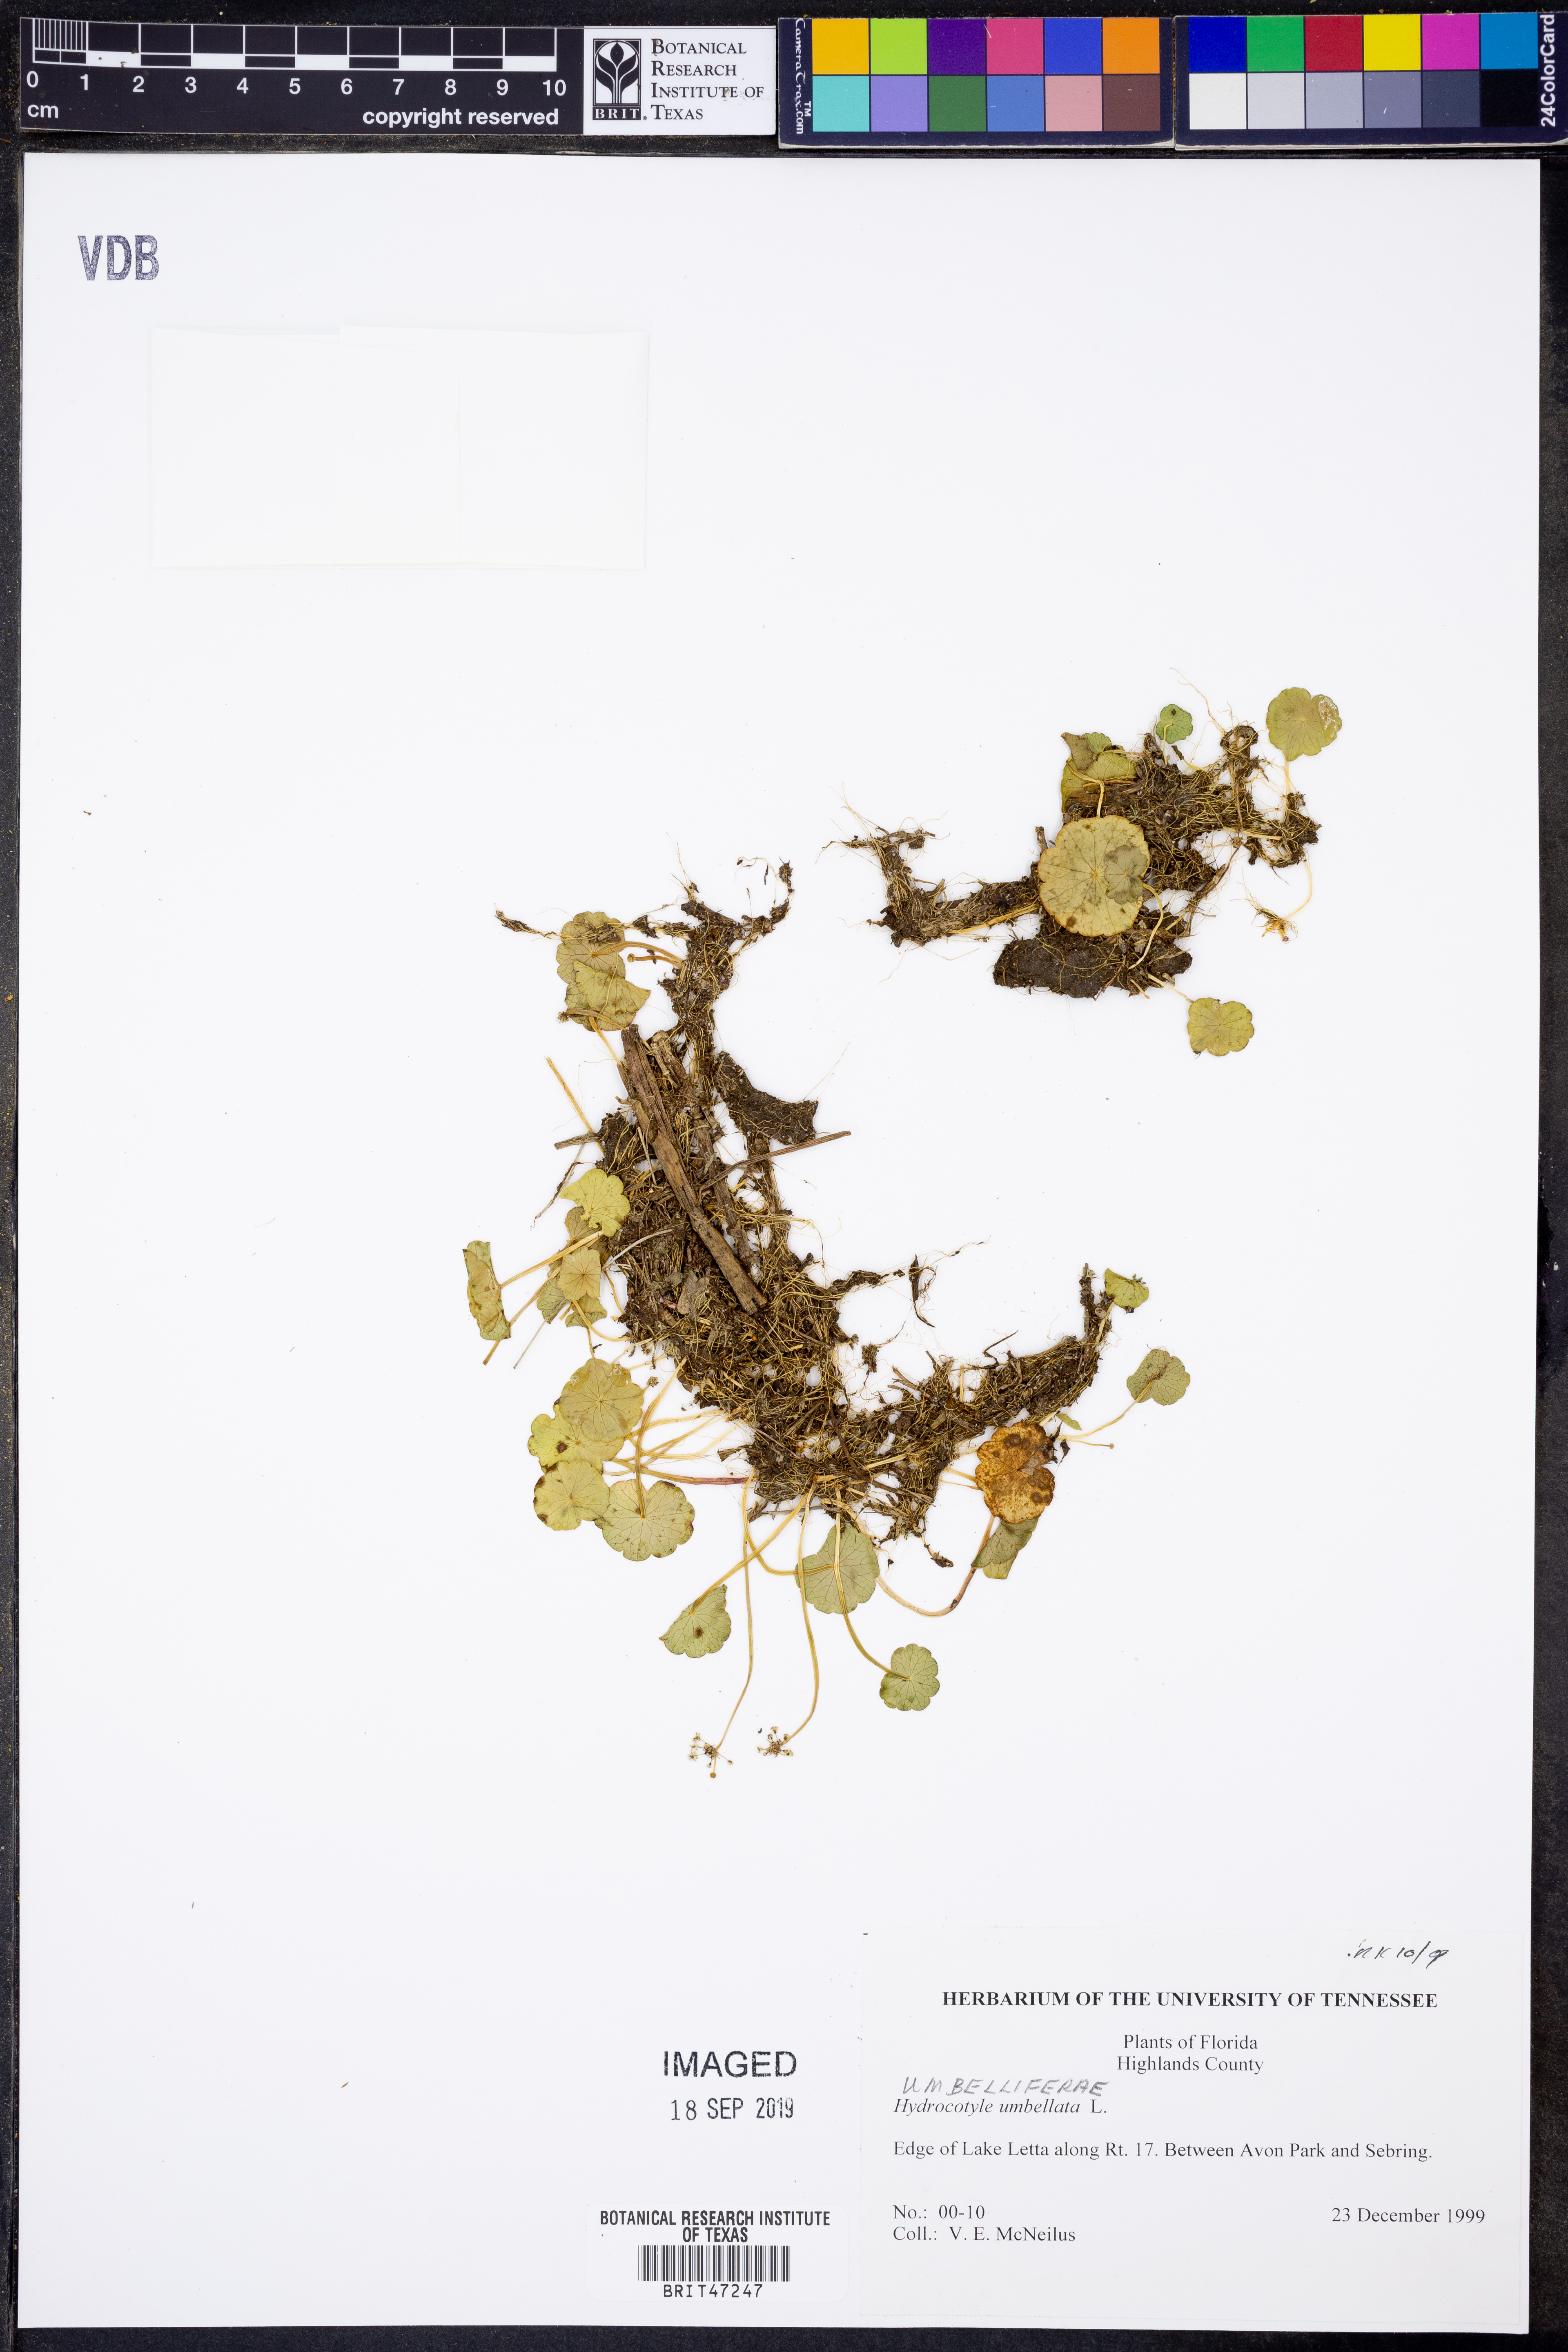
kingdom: Plantae
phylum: Tracheophyta
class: Magnoliopsida
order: Apiales
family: Araliaceae
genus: Hydrocotyle
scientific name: Hydrocotyle umbellata
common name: Water pennywort
